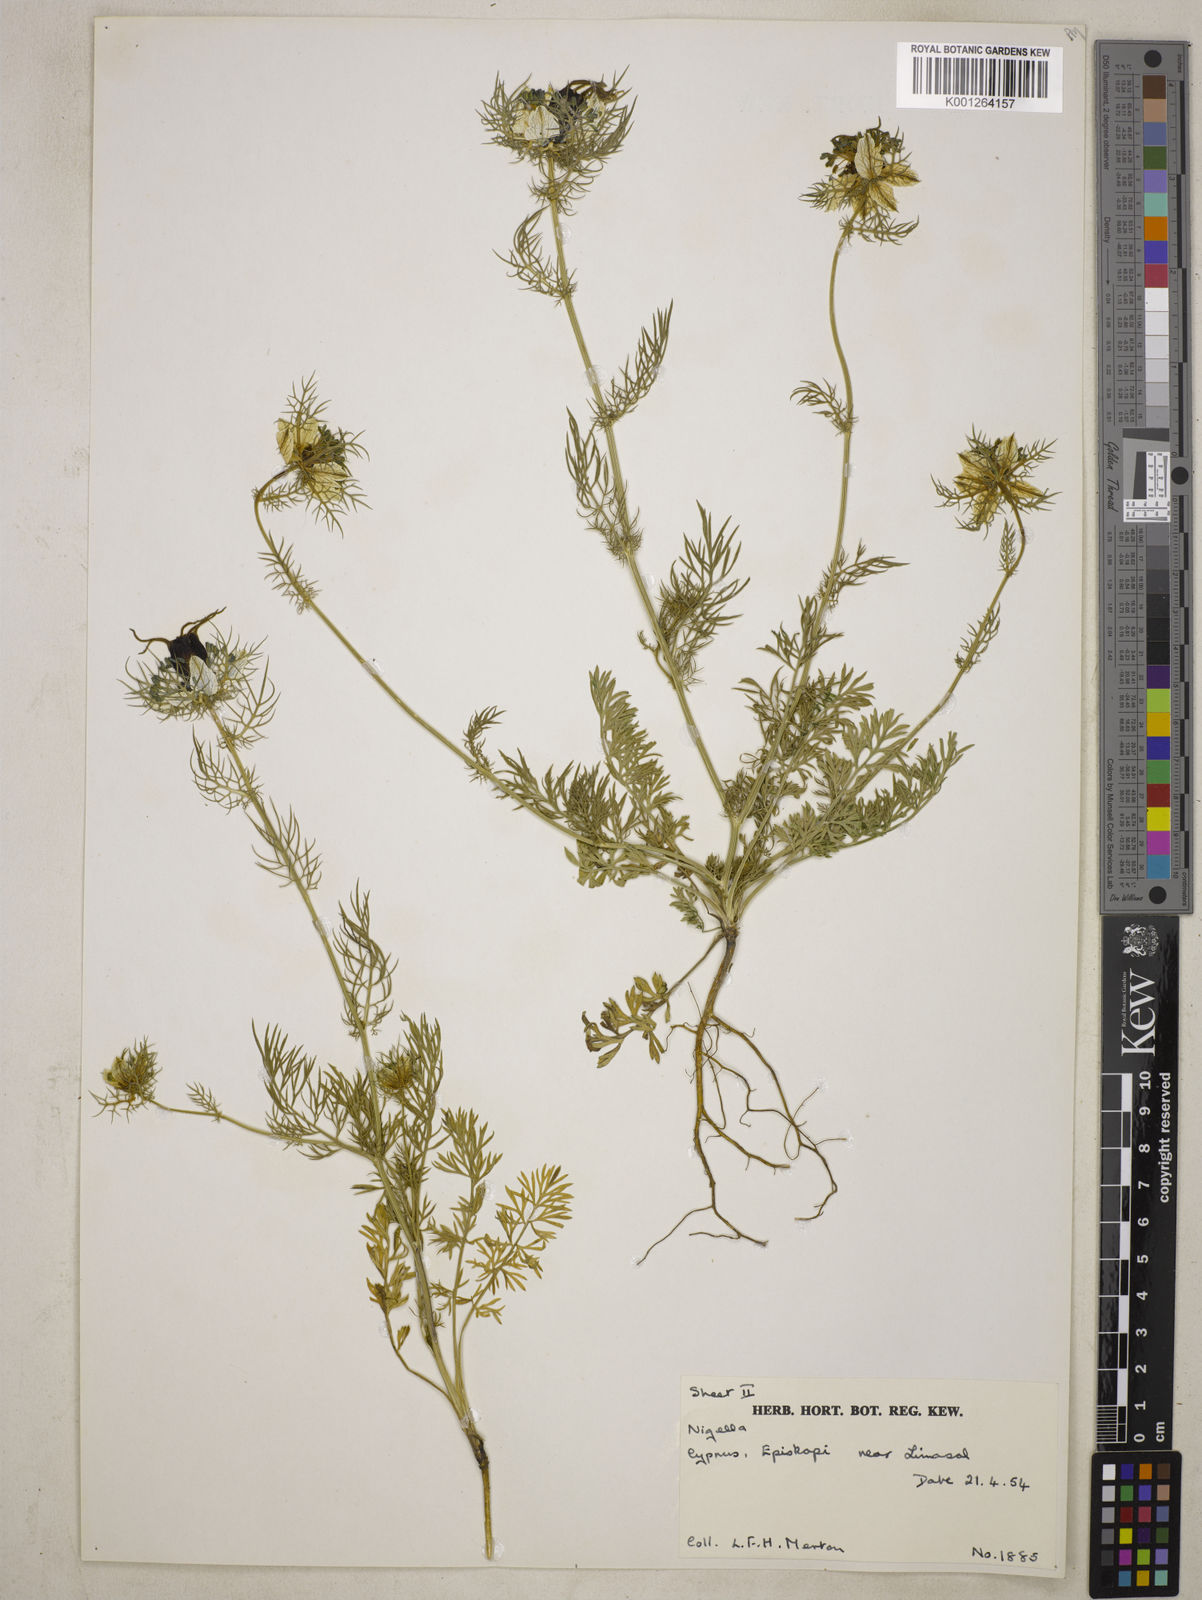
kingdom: Plantae
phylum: Tracheophyta
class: Magnoliopsida
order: Ranunculales
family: Ranunculaceae
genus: Nigella
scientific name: Nigella damascena
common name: Love-in-a-mist
